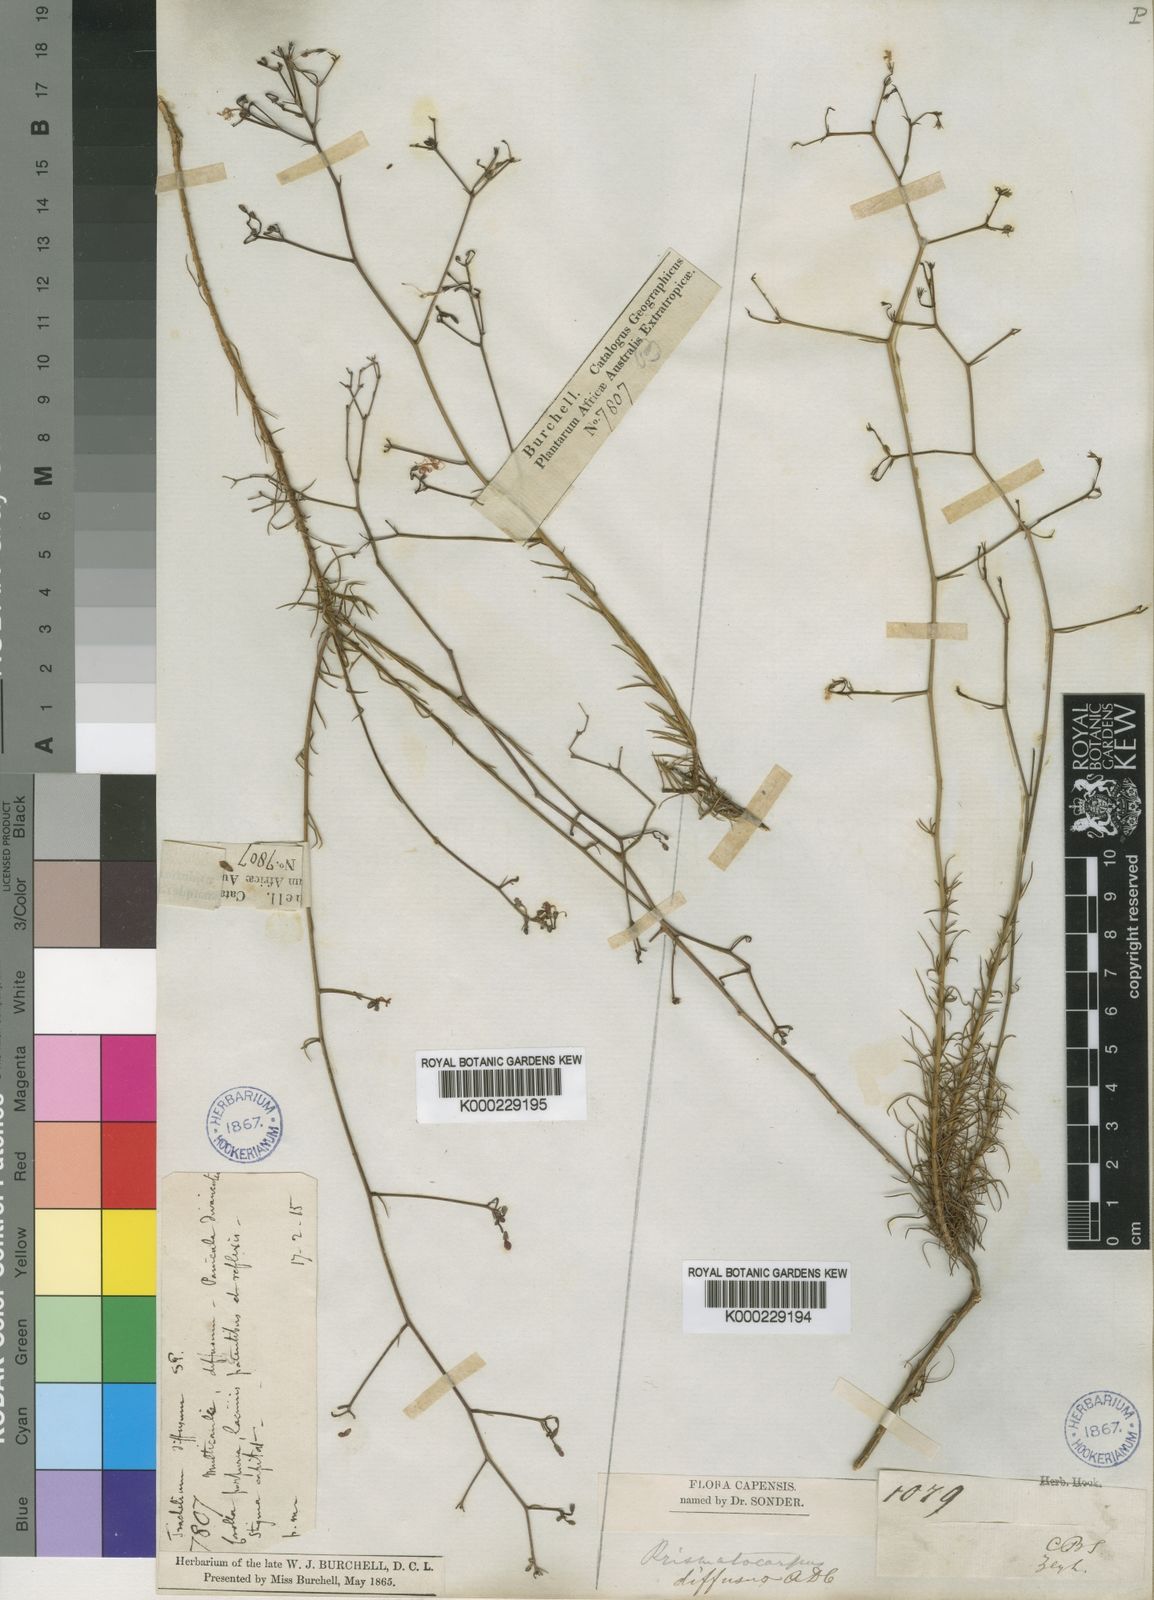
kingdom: Plantae
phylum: Tracheophyta
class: Magnoliopsida
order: Asterales
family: Campanulaceae
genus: Prismatocarpus
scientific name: Prismatocarpus diffusus
